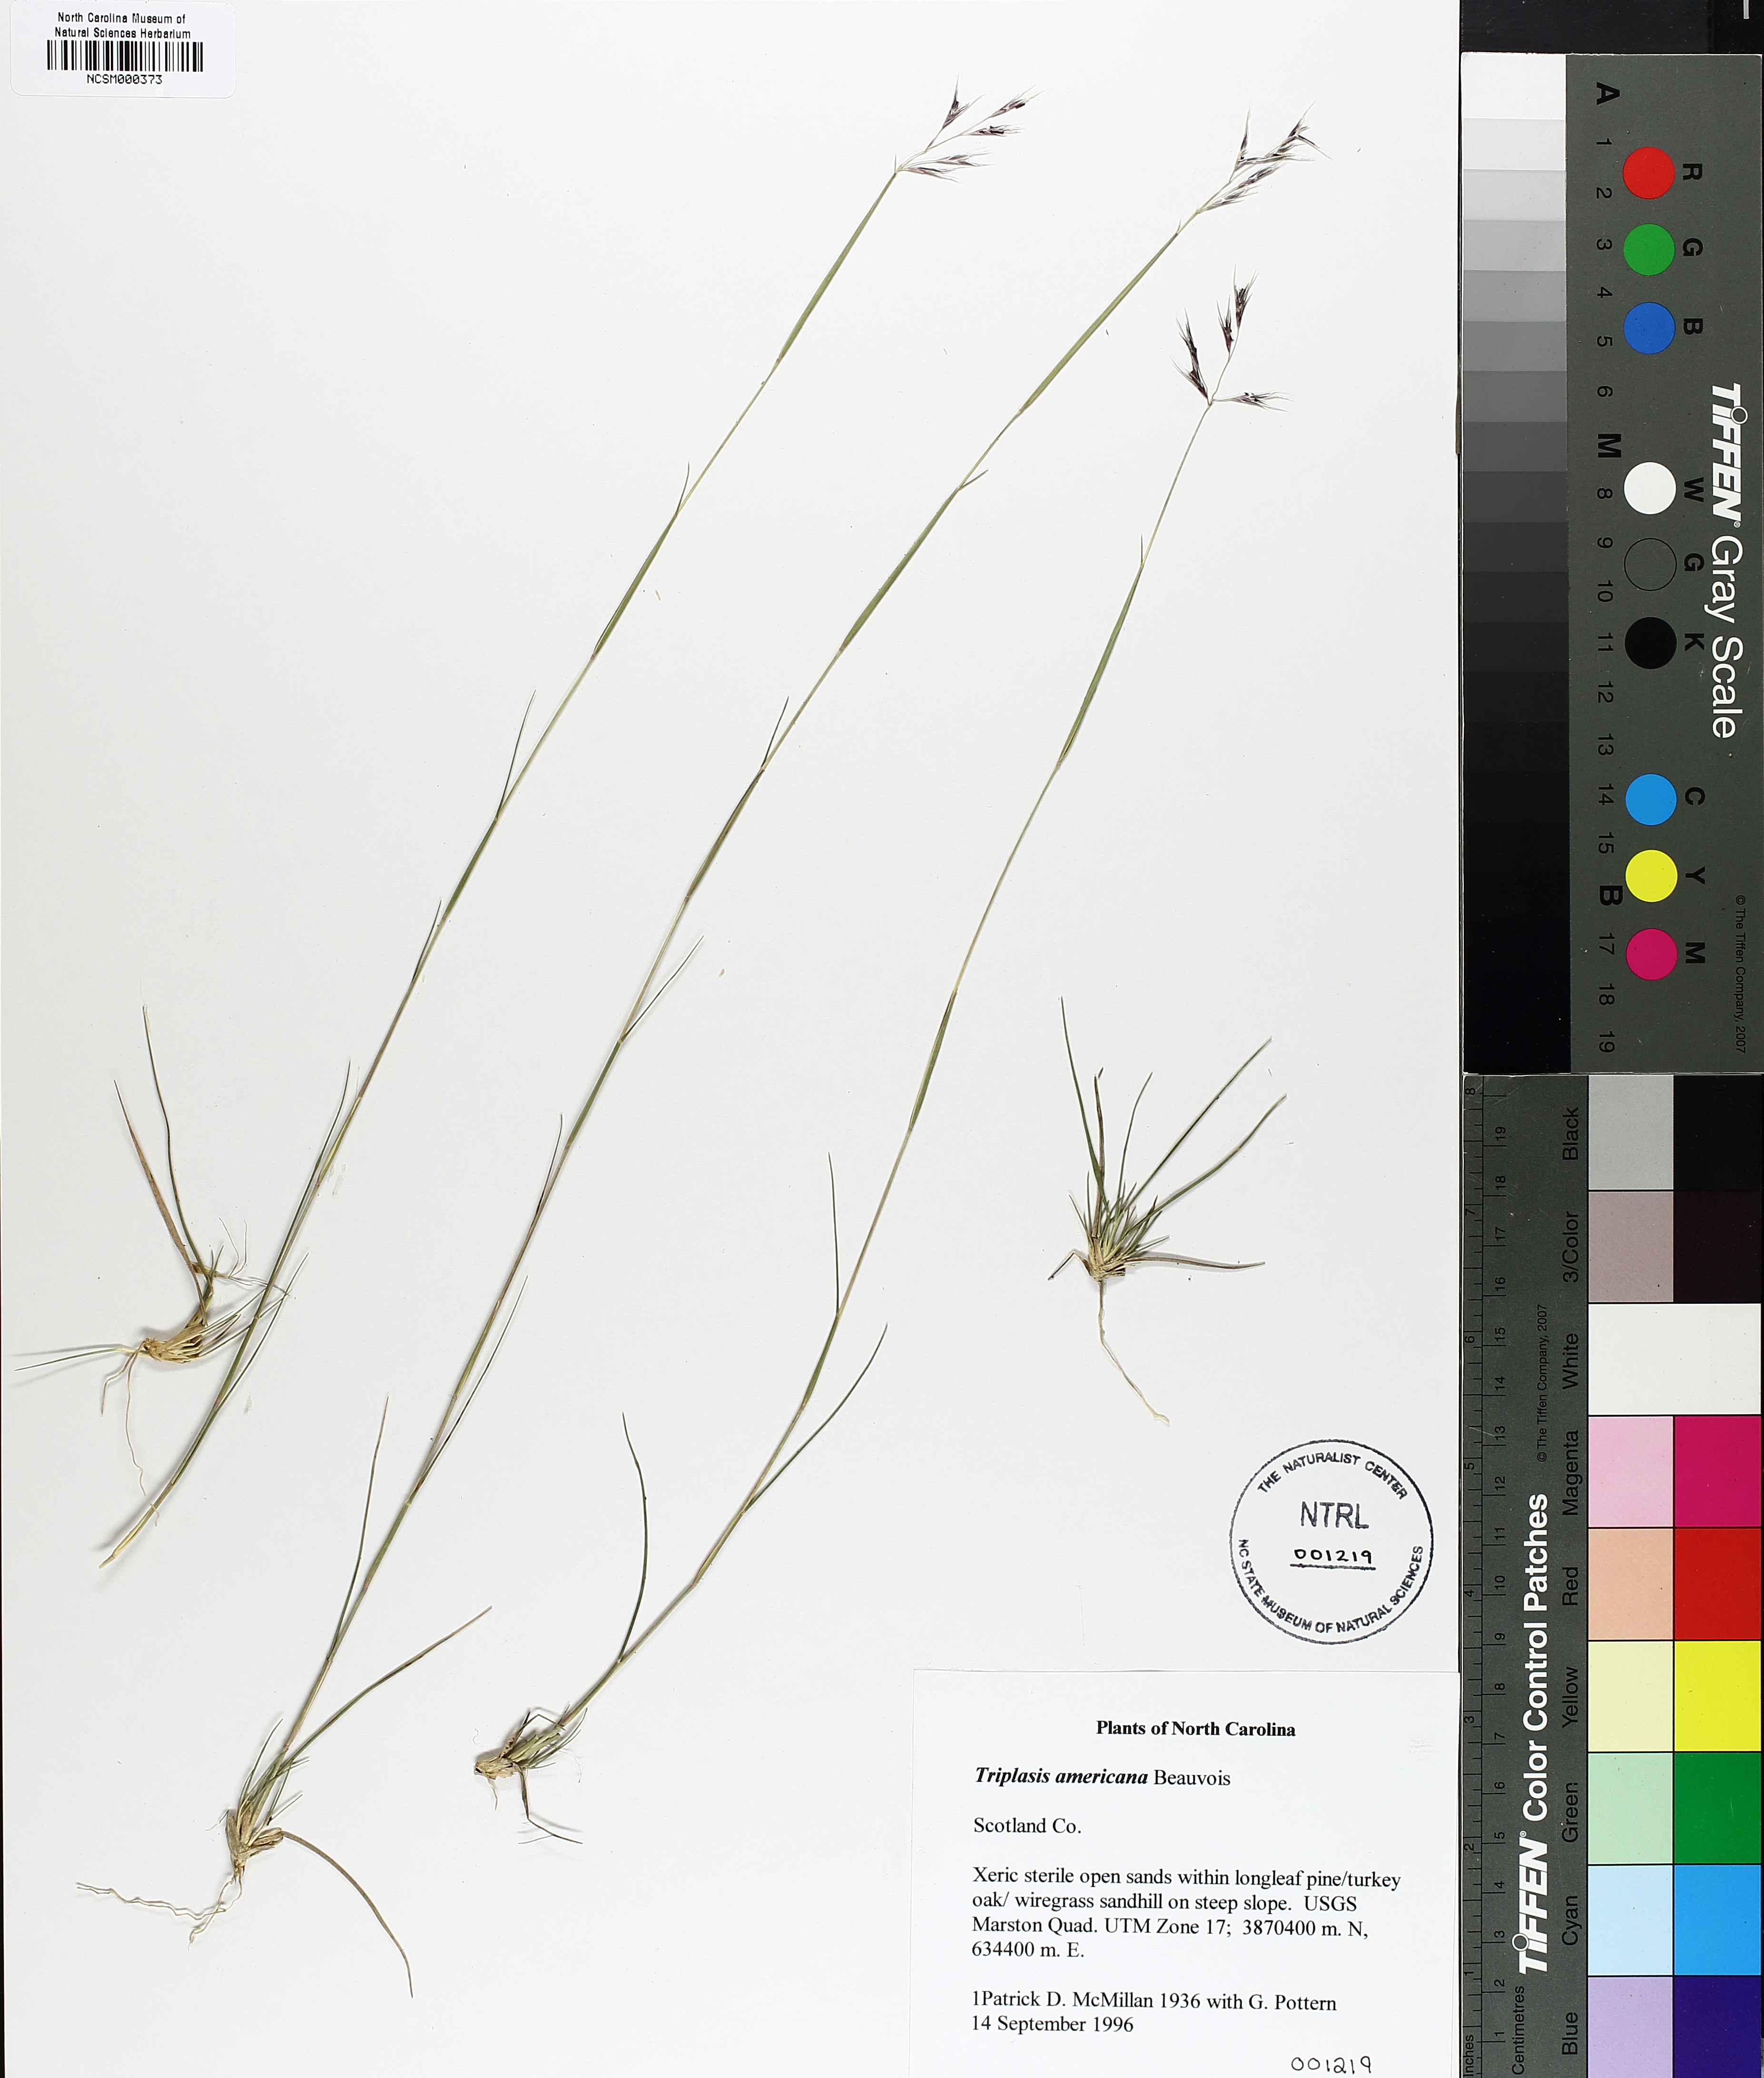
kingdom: Plantae
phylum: Tracheophyta
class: Liliopsida
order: Poales
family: Poaceae
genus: Triplasis
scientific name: Triplasis americana
